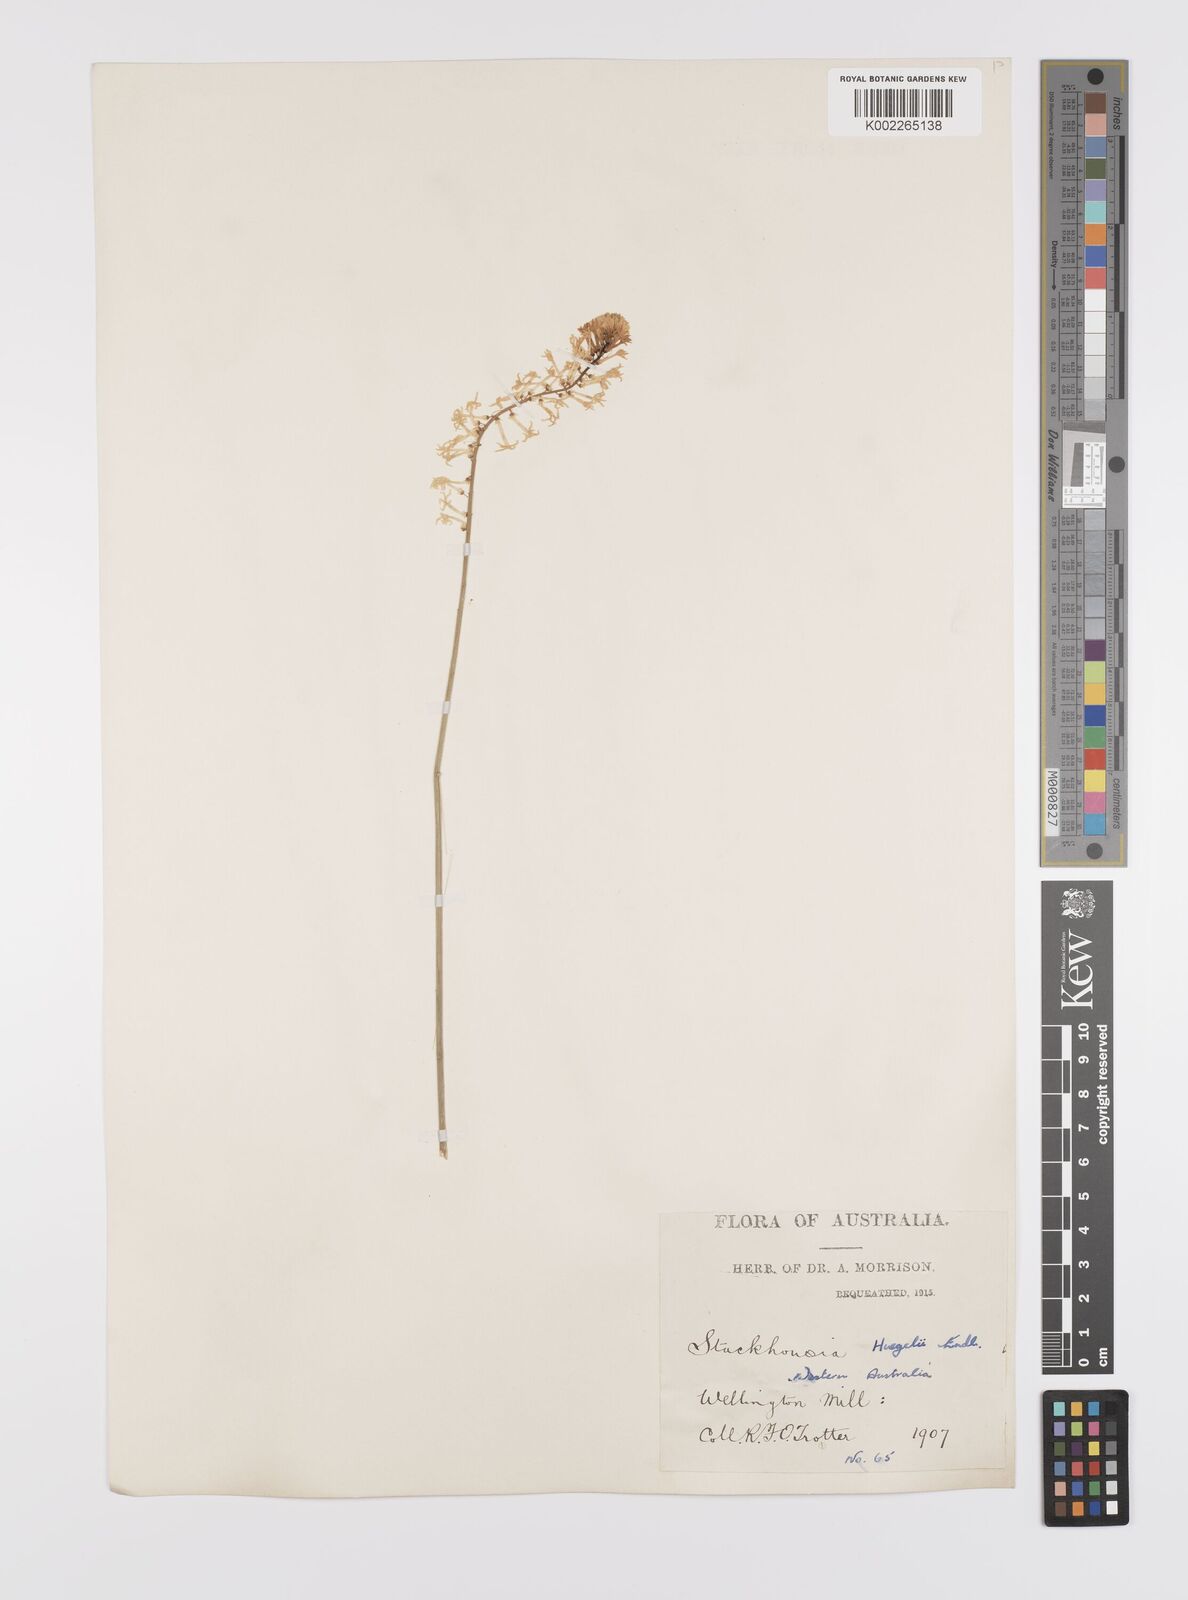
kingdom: Plantae
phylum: Tracheophyta
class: Magnoliopsida
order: Celastrales
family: Celastraceae
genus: Stackhousia
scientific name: Stackhousia monogyna
